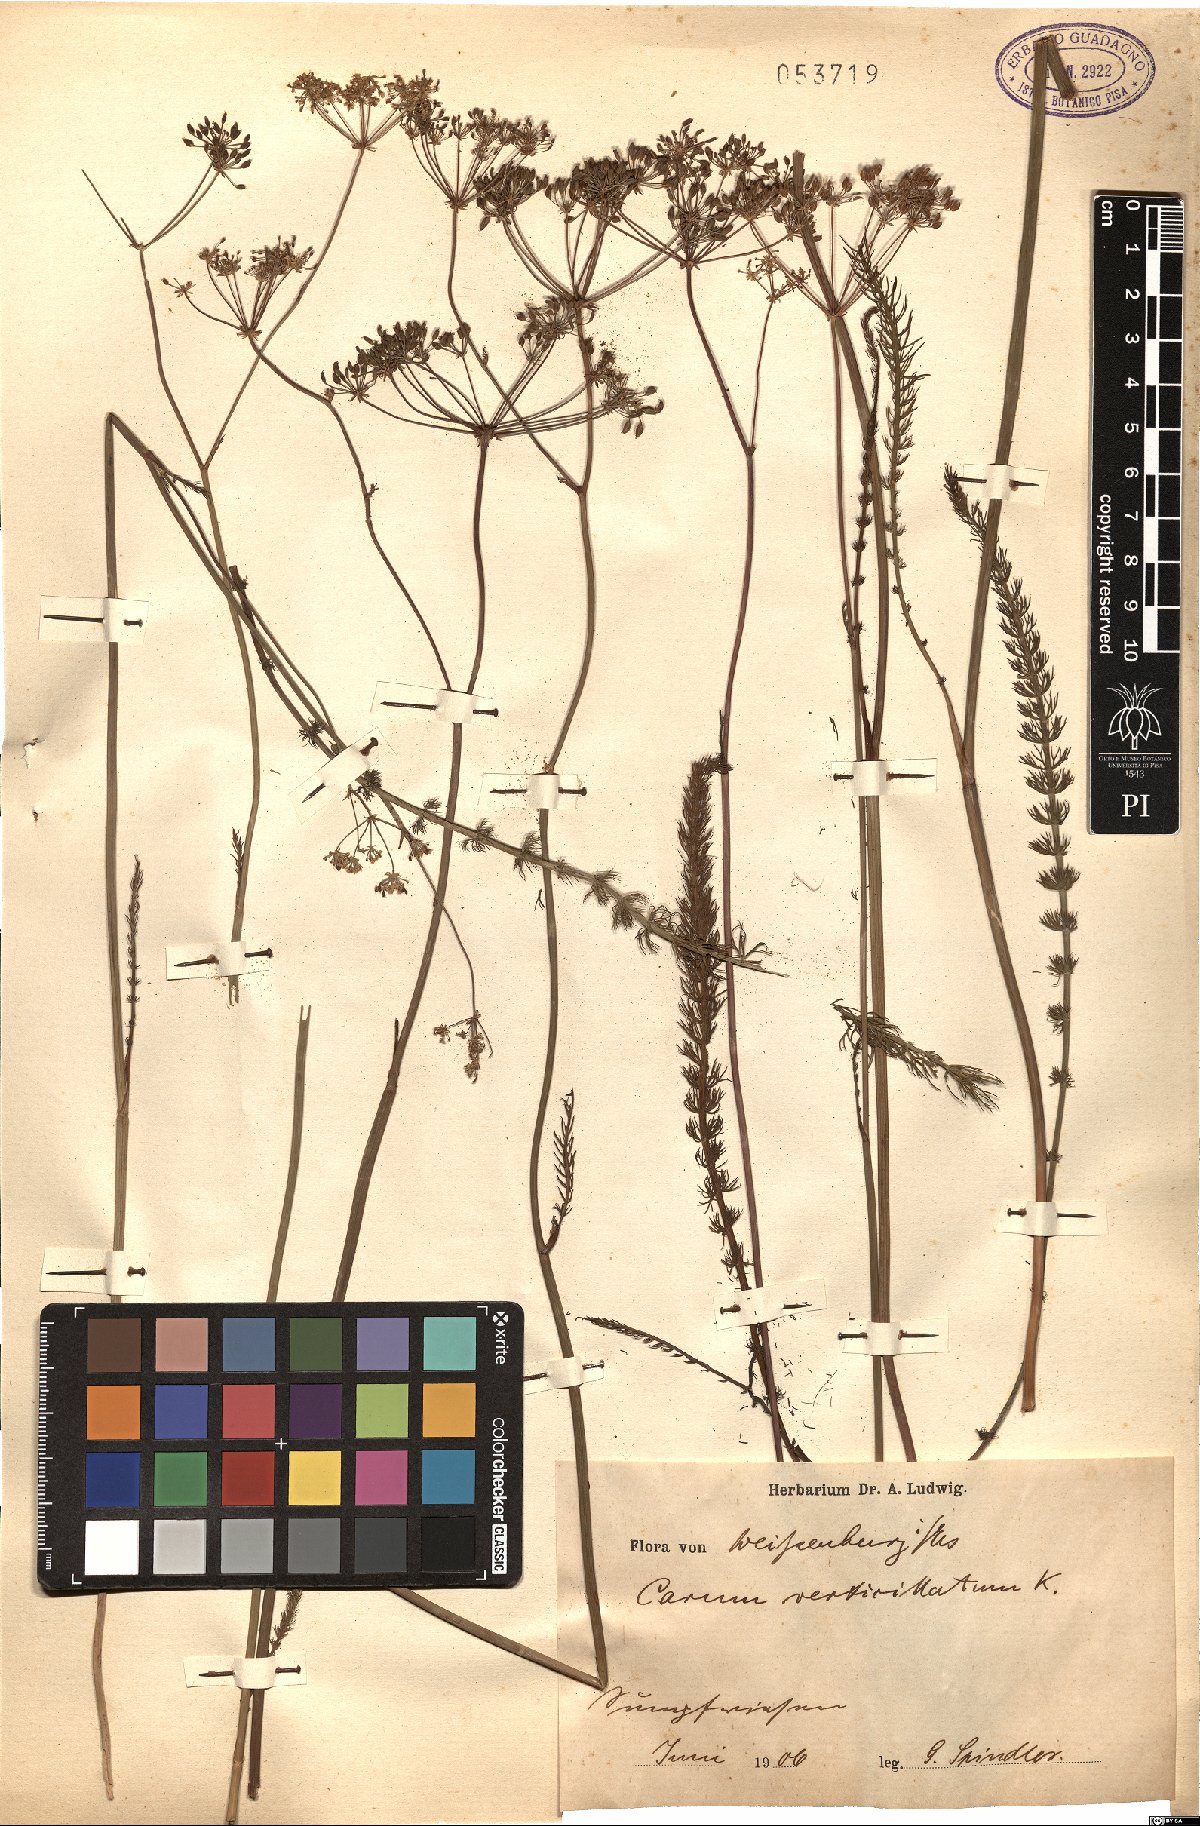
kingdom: Plantae
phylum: Tracheophyta
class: Magnoliopsida
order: Apiales
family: Apiaceae
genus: Trocdaris
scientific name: Trocdaris verticillatum
